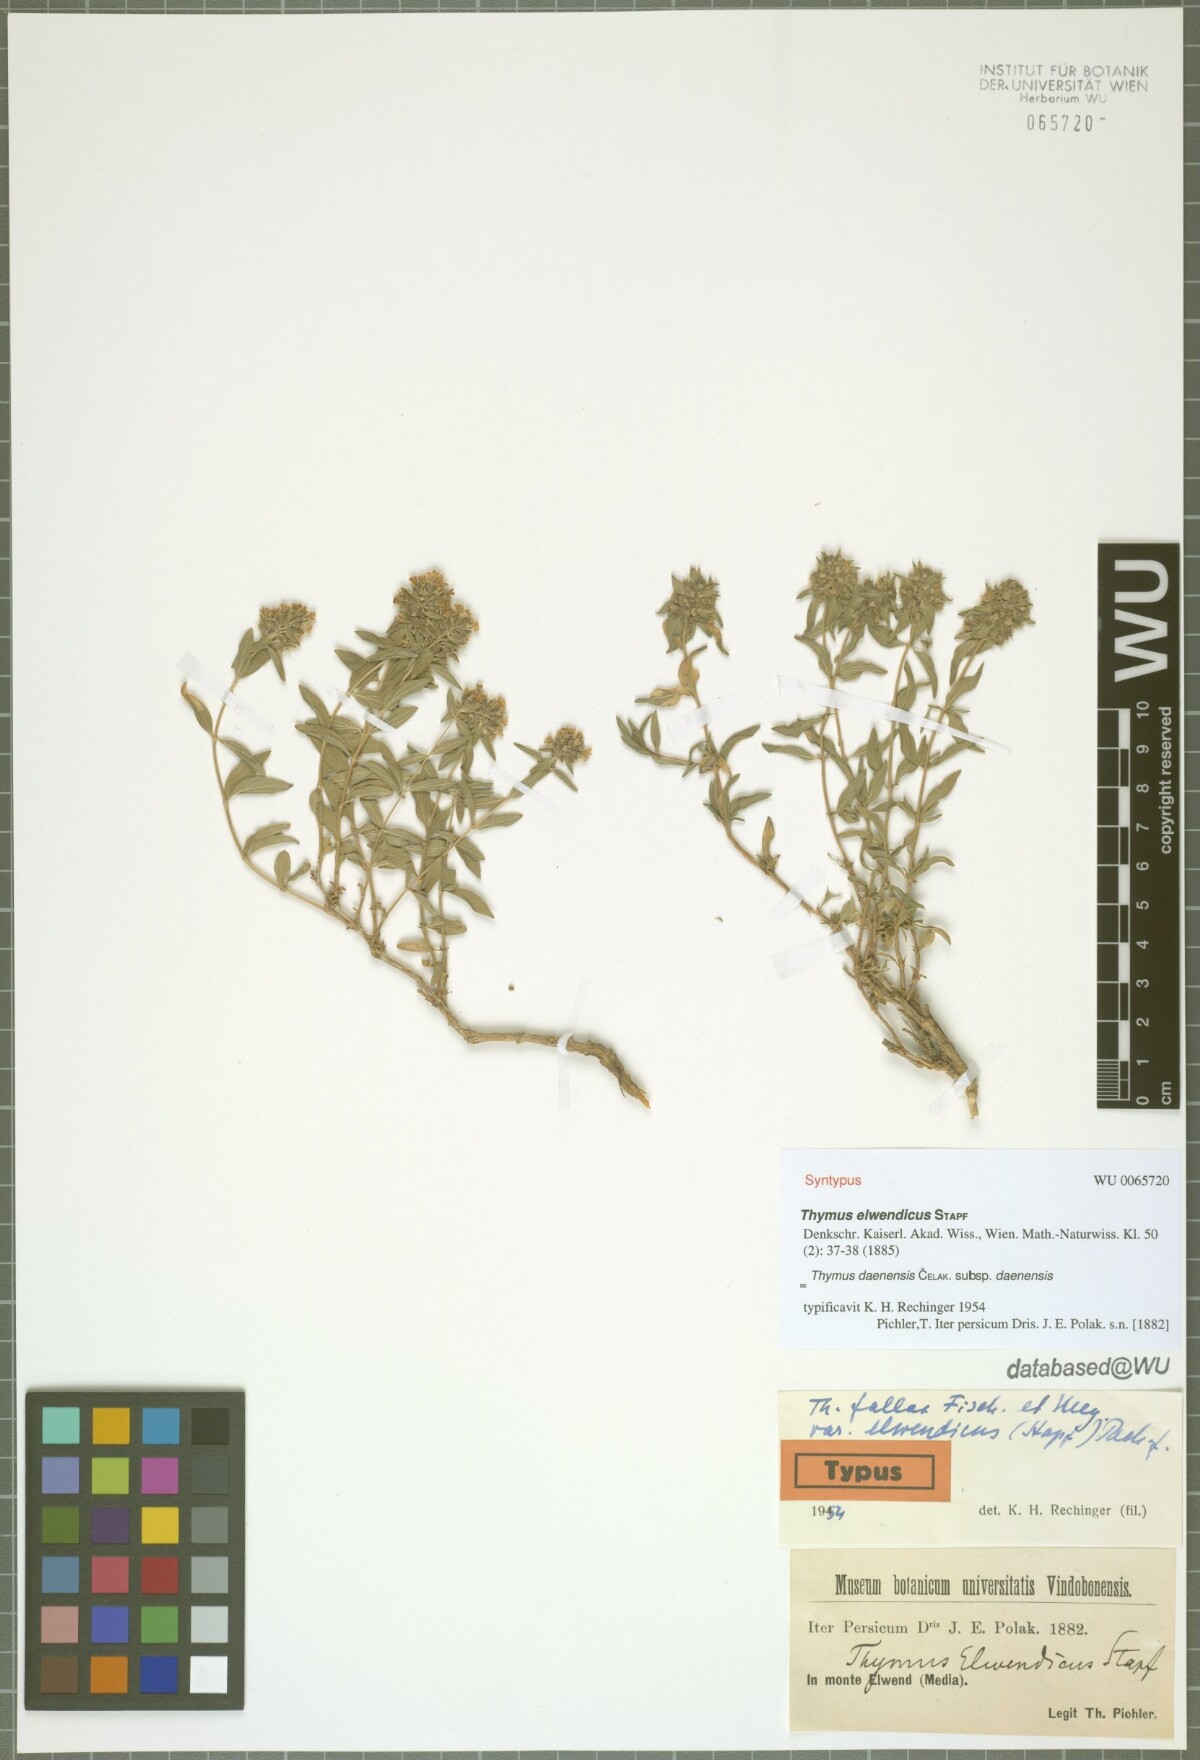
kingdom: Plantae
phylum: Tracheophyta
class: Magnoliopsida
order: Lamiales
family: Lamiaceae
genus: Thymus
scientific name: Thymus daenensis
